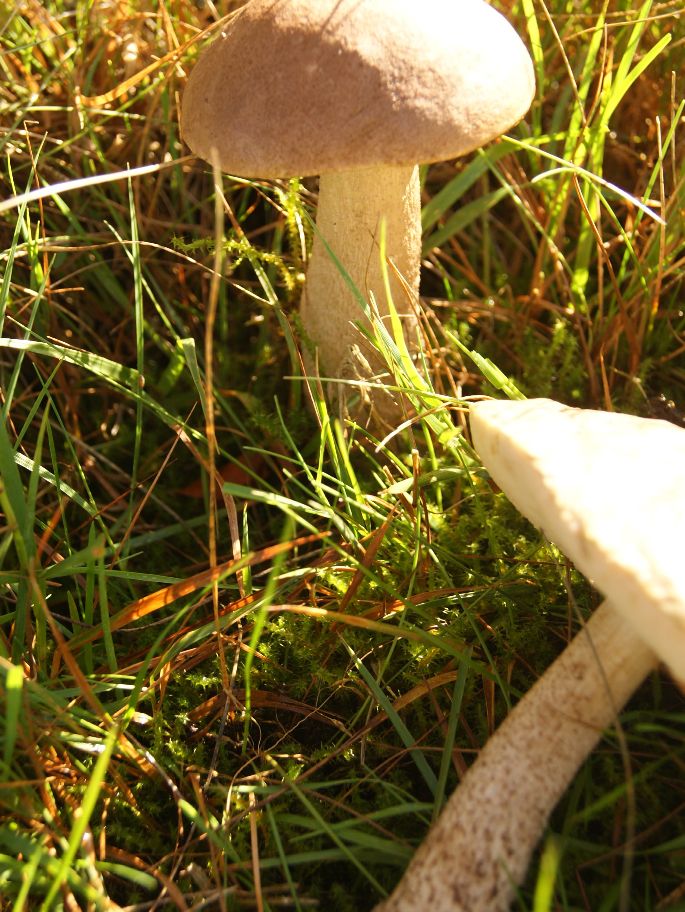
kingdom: Fungi
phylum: Basidiomycota
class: Agaricomycetes
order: Boletales
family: Boletaceae
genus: Leccinum
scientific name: Leccinum schistophilum
